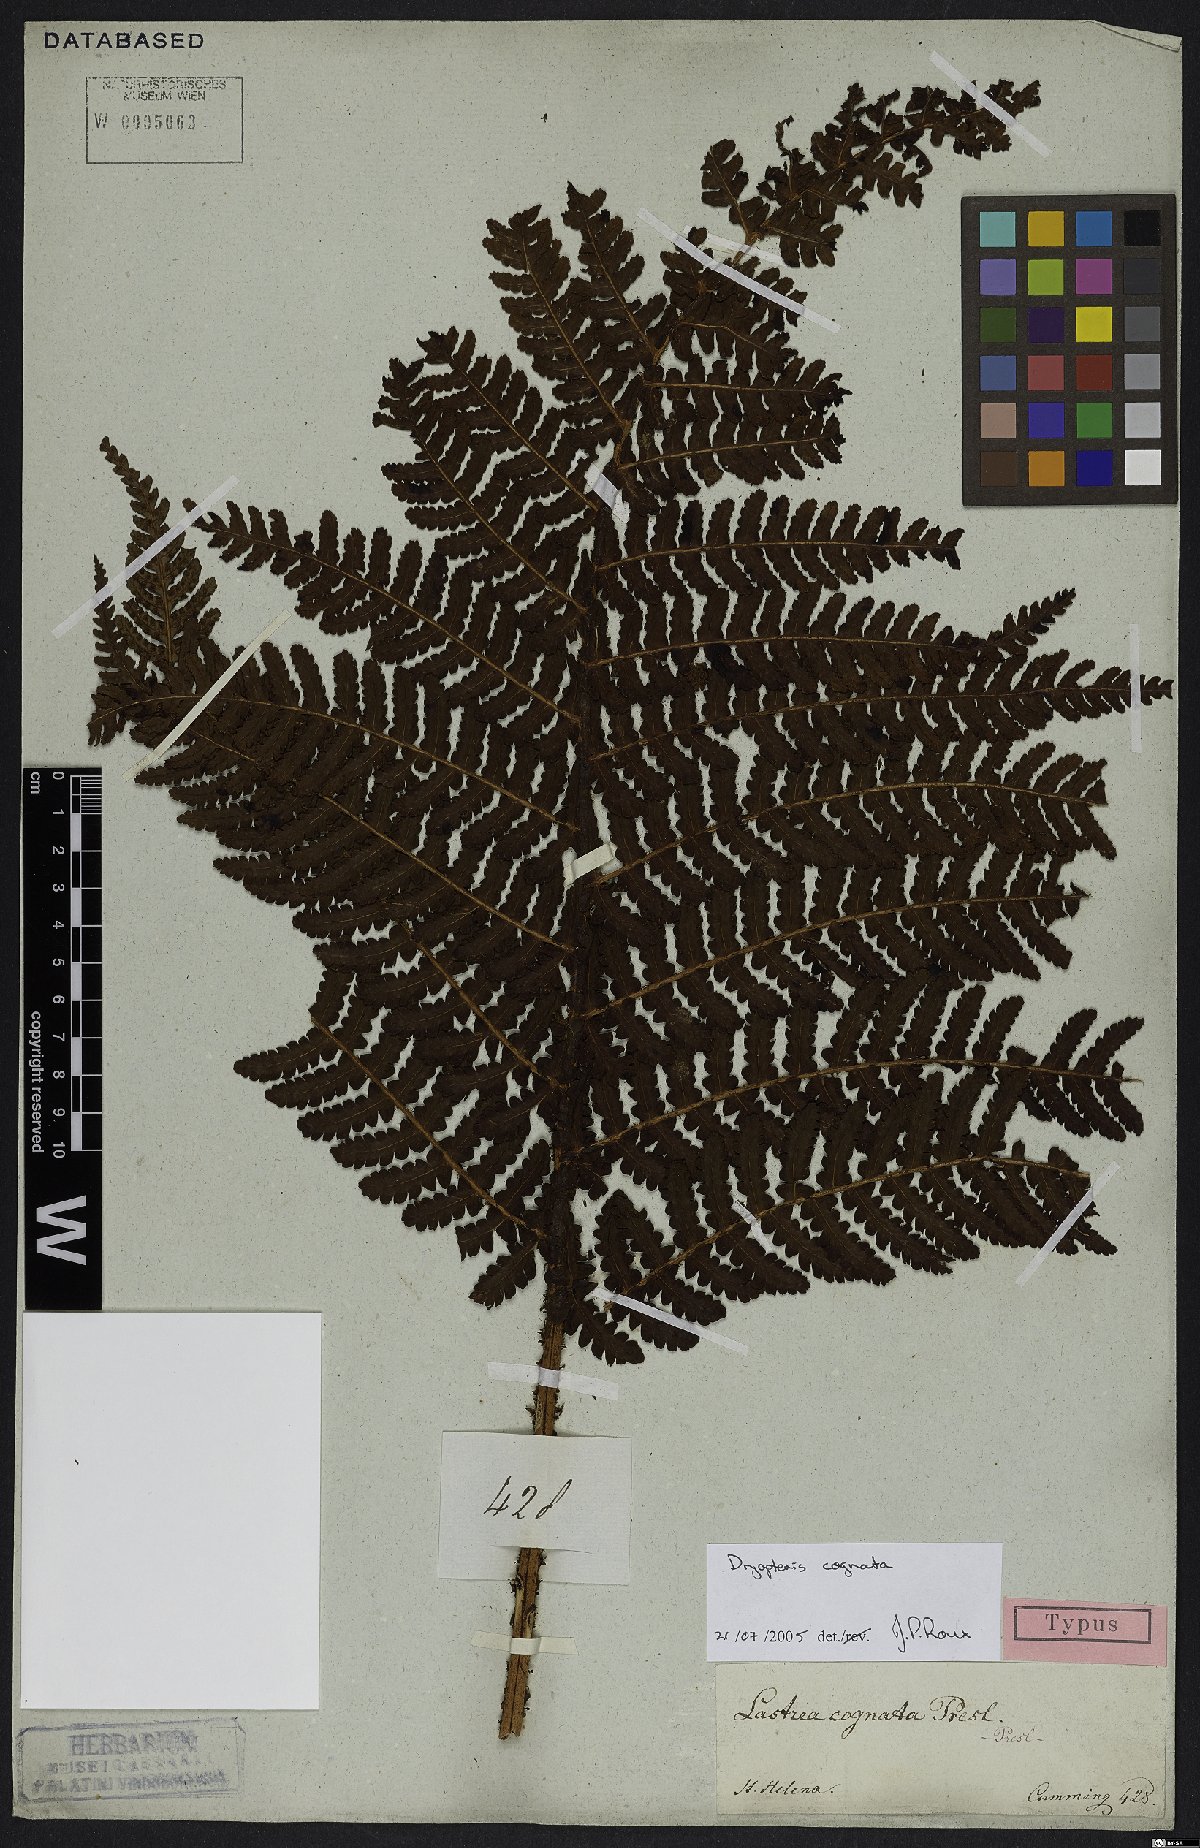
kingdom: Plantae
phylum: Tracheophyta
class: Polypodiopsida
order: Polypodiales
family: Dryopteridaceae
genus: Dryopteris
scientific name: Dryopteris cognata
